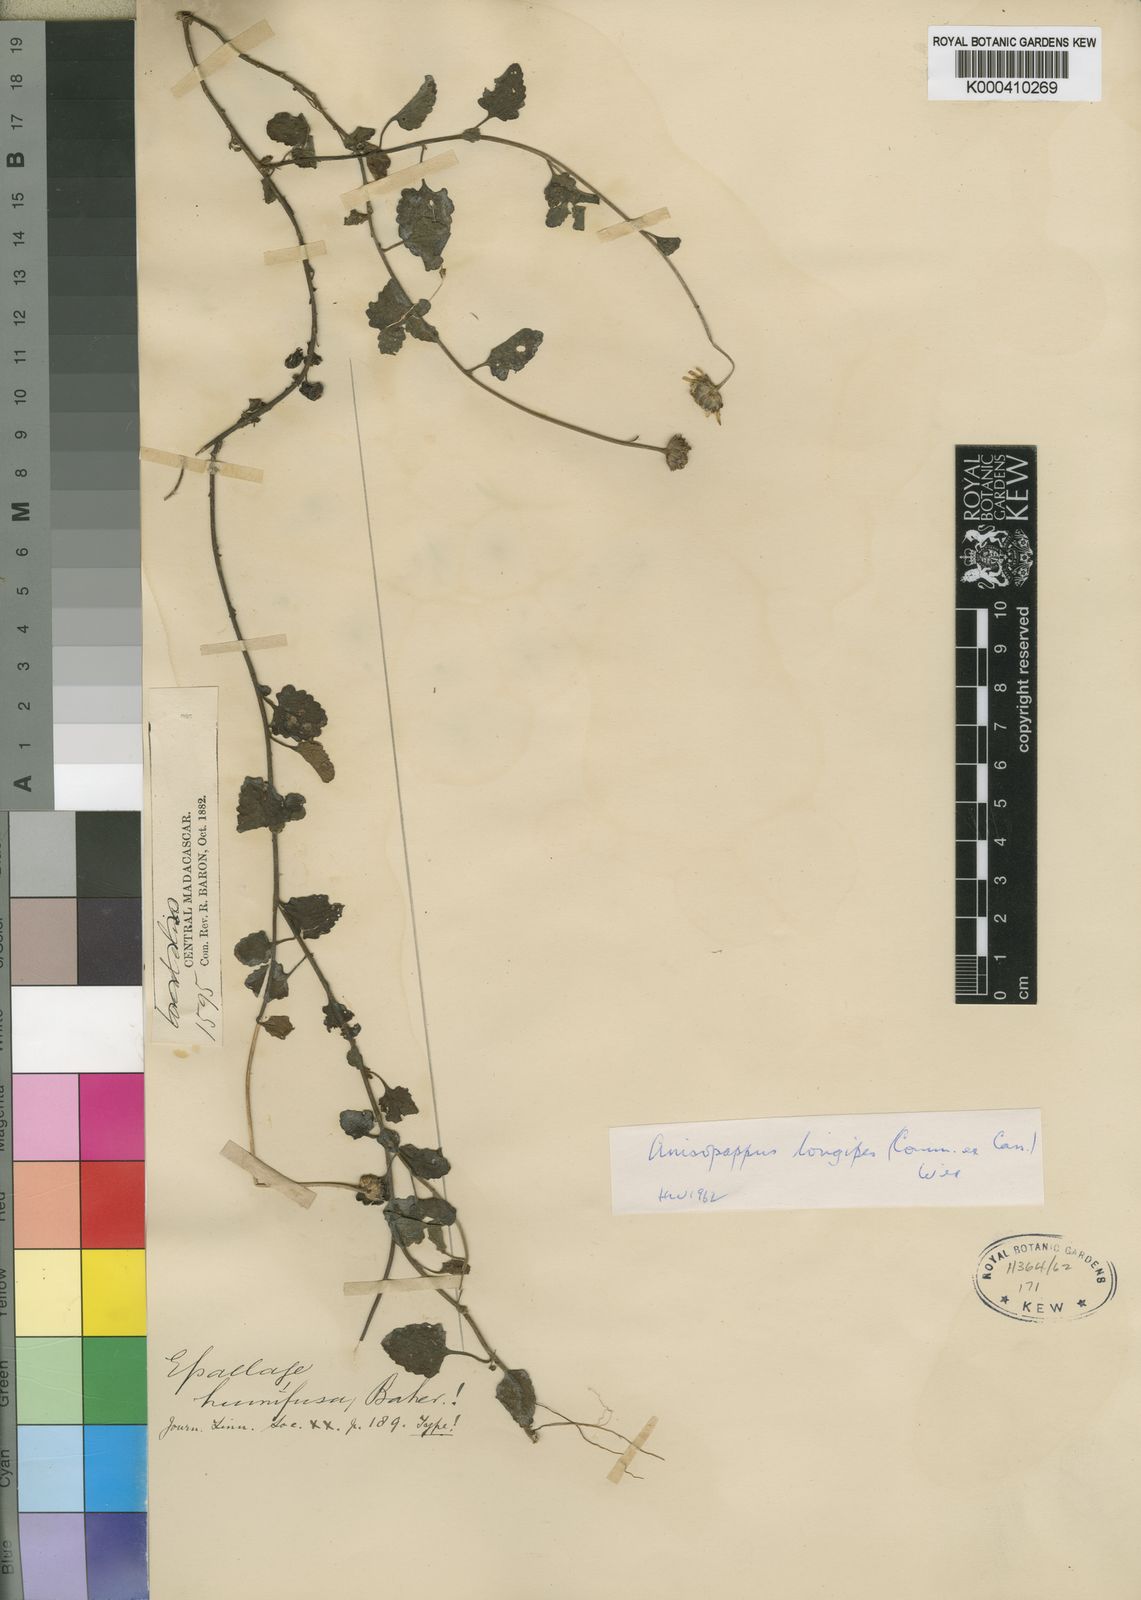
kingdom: Plantae
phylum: Tracheophyta
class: Magnoliopsida
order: Asterales
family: Asteraceae
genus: Anisopappus
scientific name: Anisopappus longipes
